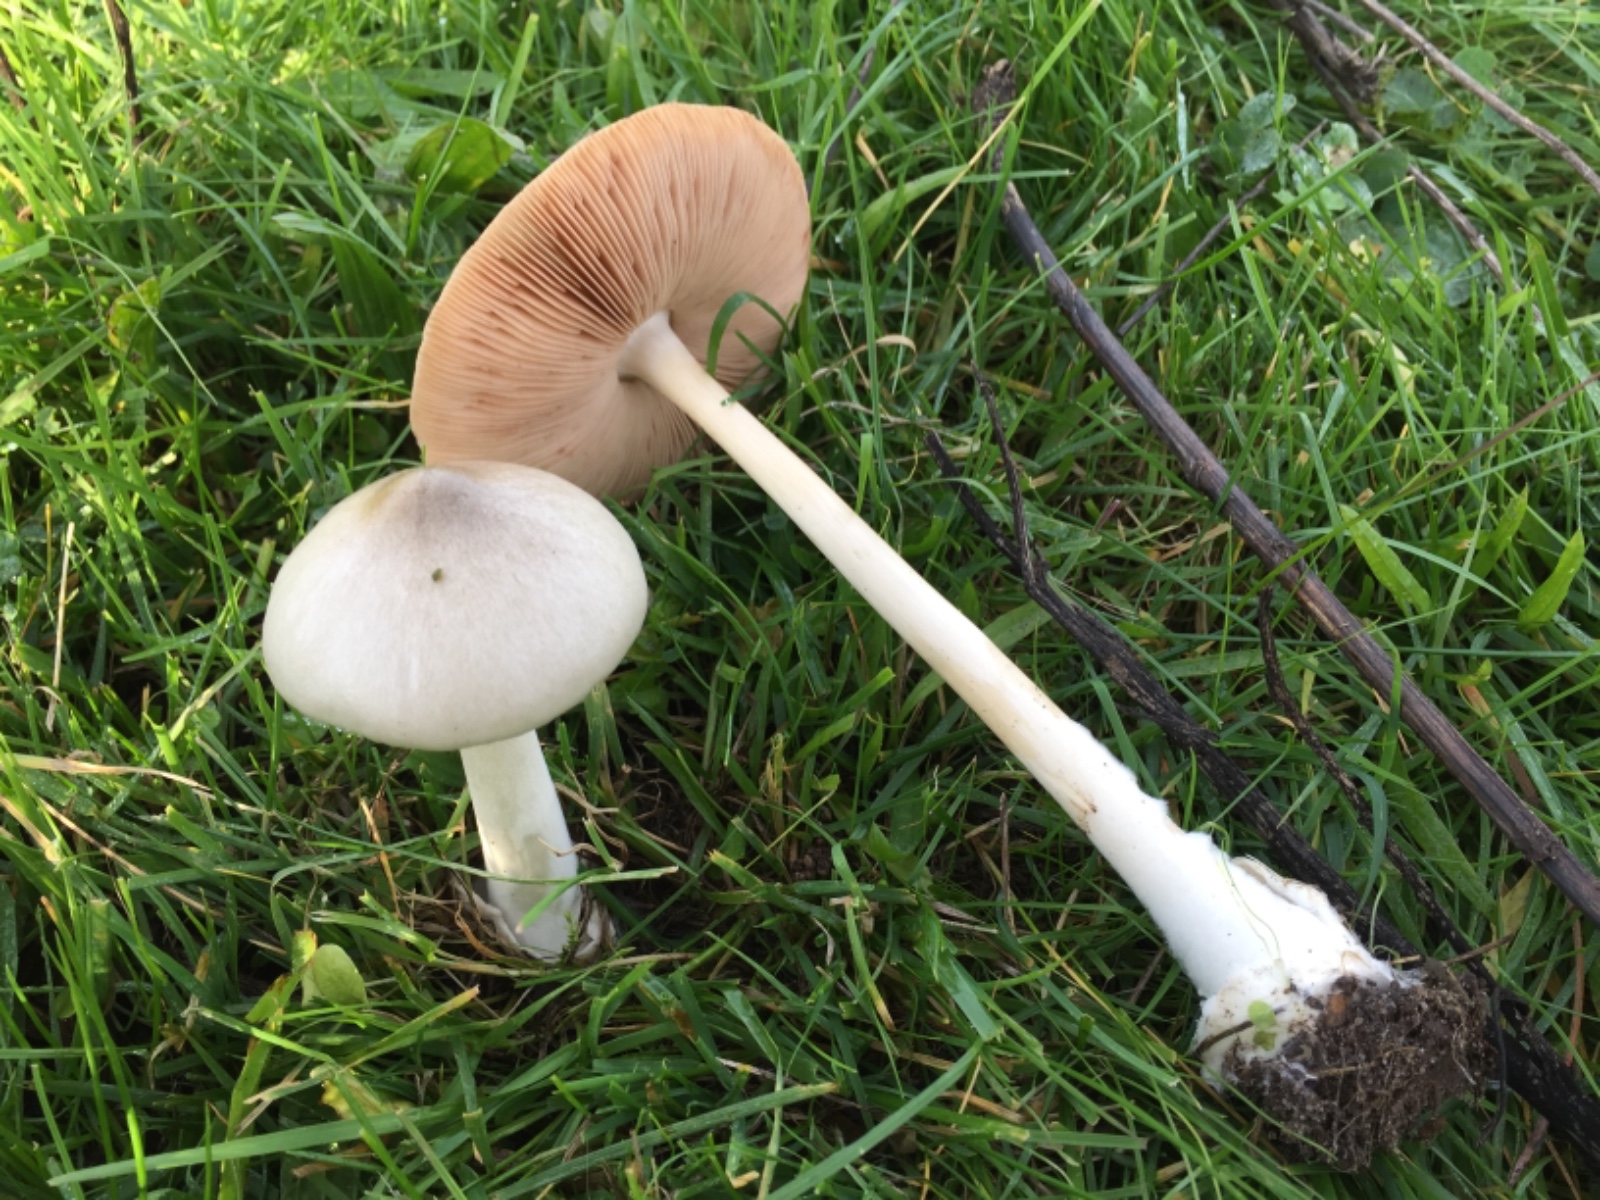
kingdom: Fungi
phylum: Basidiomycota
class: Agaricomycetes
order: Agaricales
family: Pluteaceae
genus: Volvopluteus
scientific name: Volvopluteus gloiocephalus
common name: høj posesvamp
